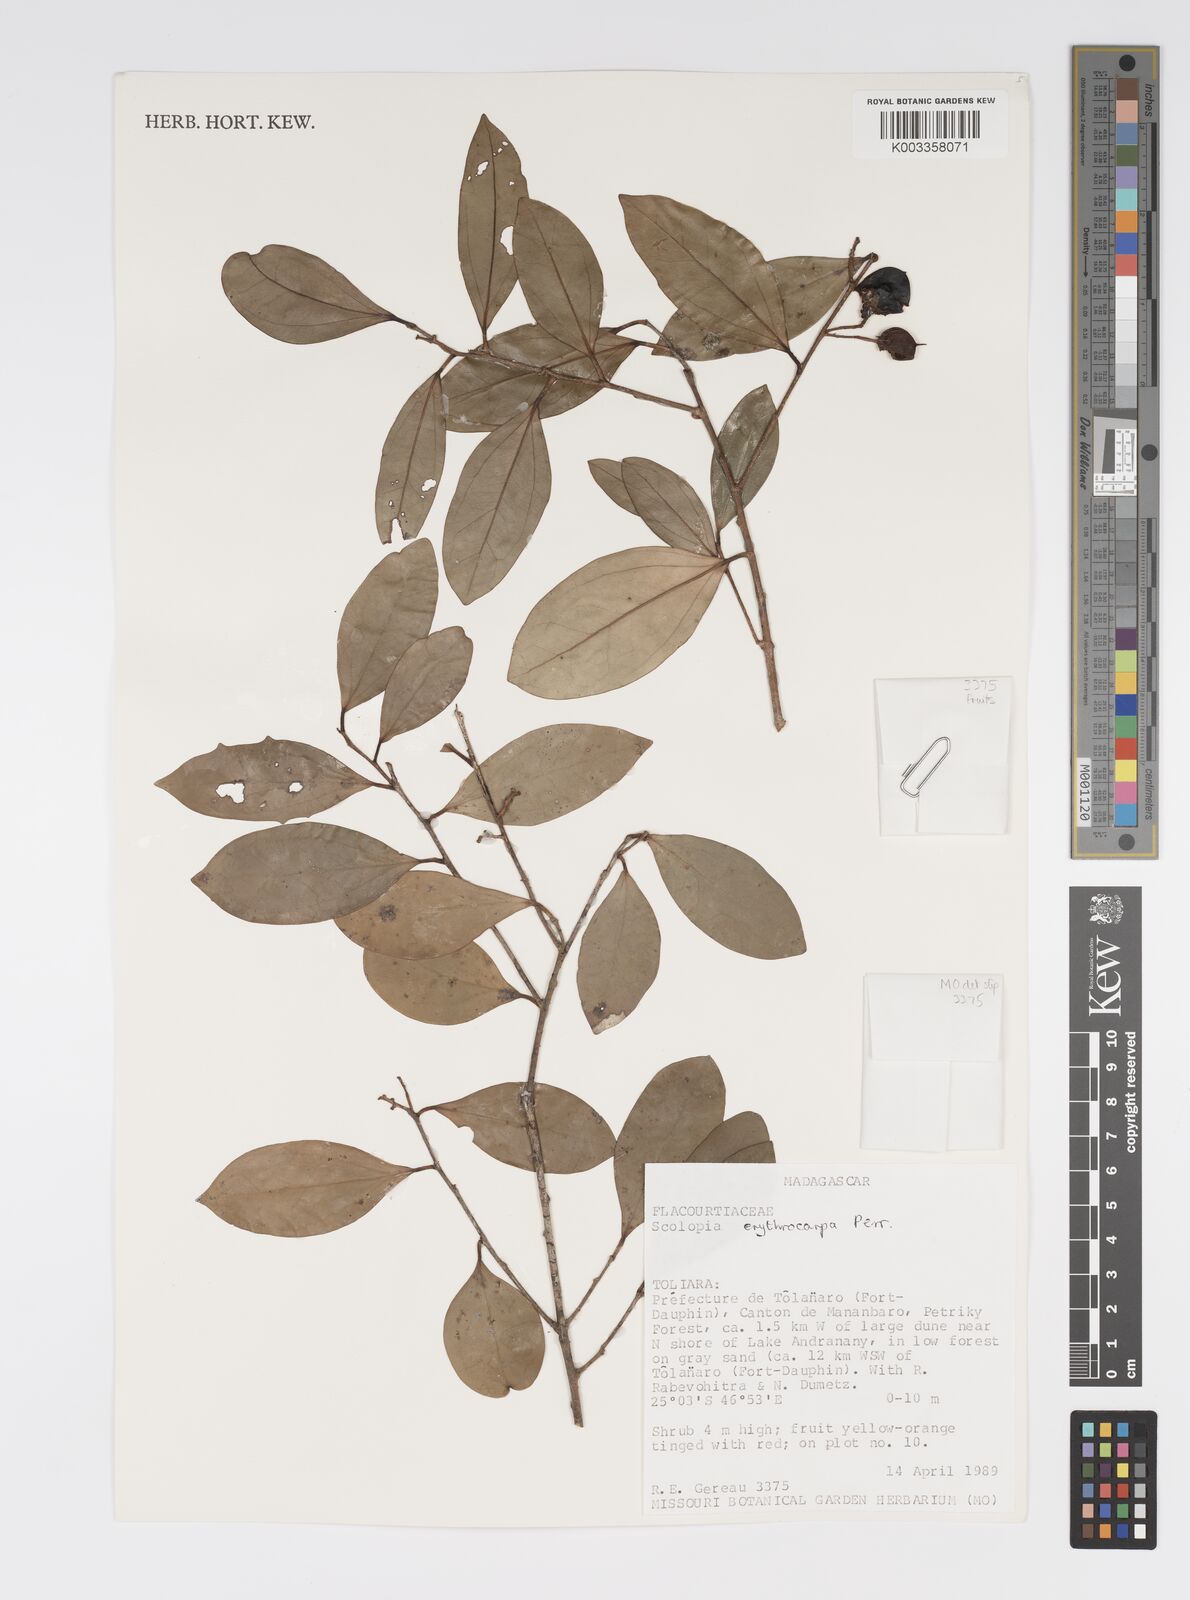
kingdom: Plantae
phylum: Tracheophyta
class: Magnoliopsida
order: Malpighiales
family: Salicaceae
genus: Scolopia
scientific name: Scolopia erythrocarpa
